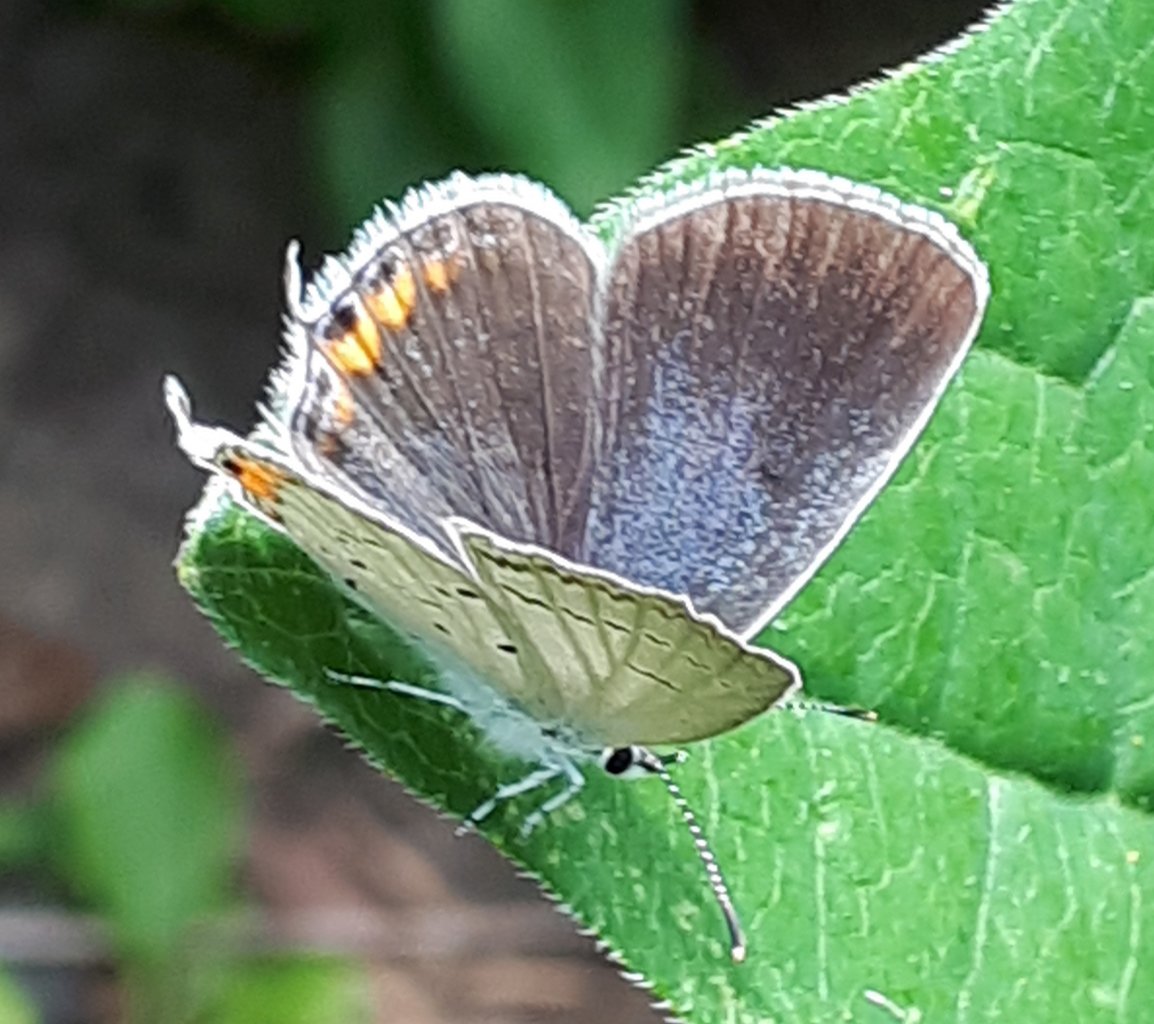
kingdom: Animalia
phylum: Arthropoda
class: Insecta
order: Lepidoptera
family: Lycaenidae
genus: Elkalyce
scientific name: Elkalyce comyntas
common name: Eastern Tailed-Blue
